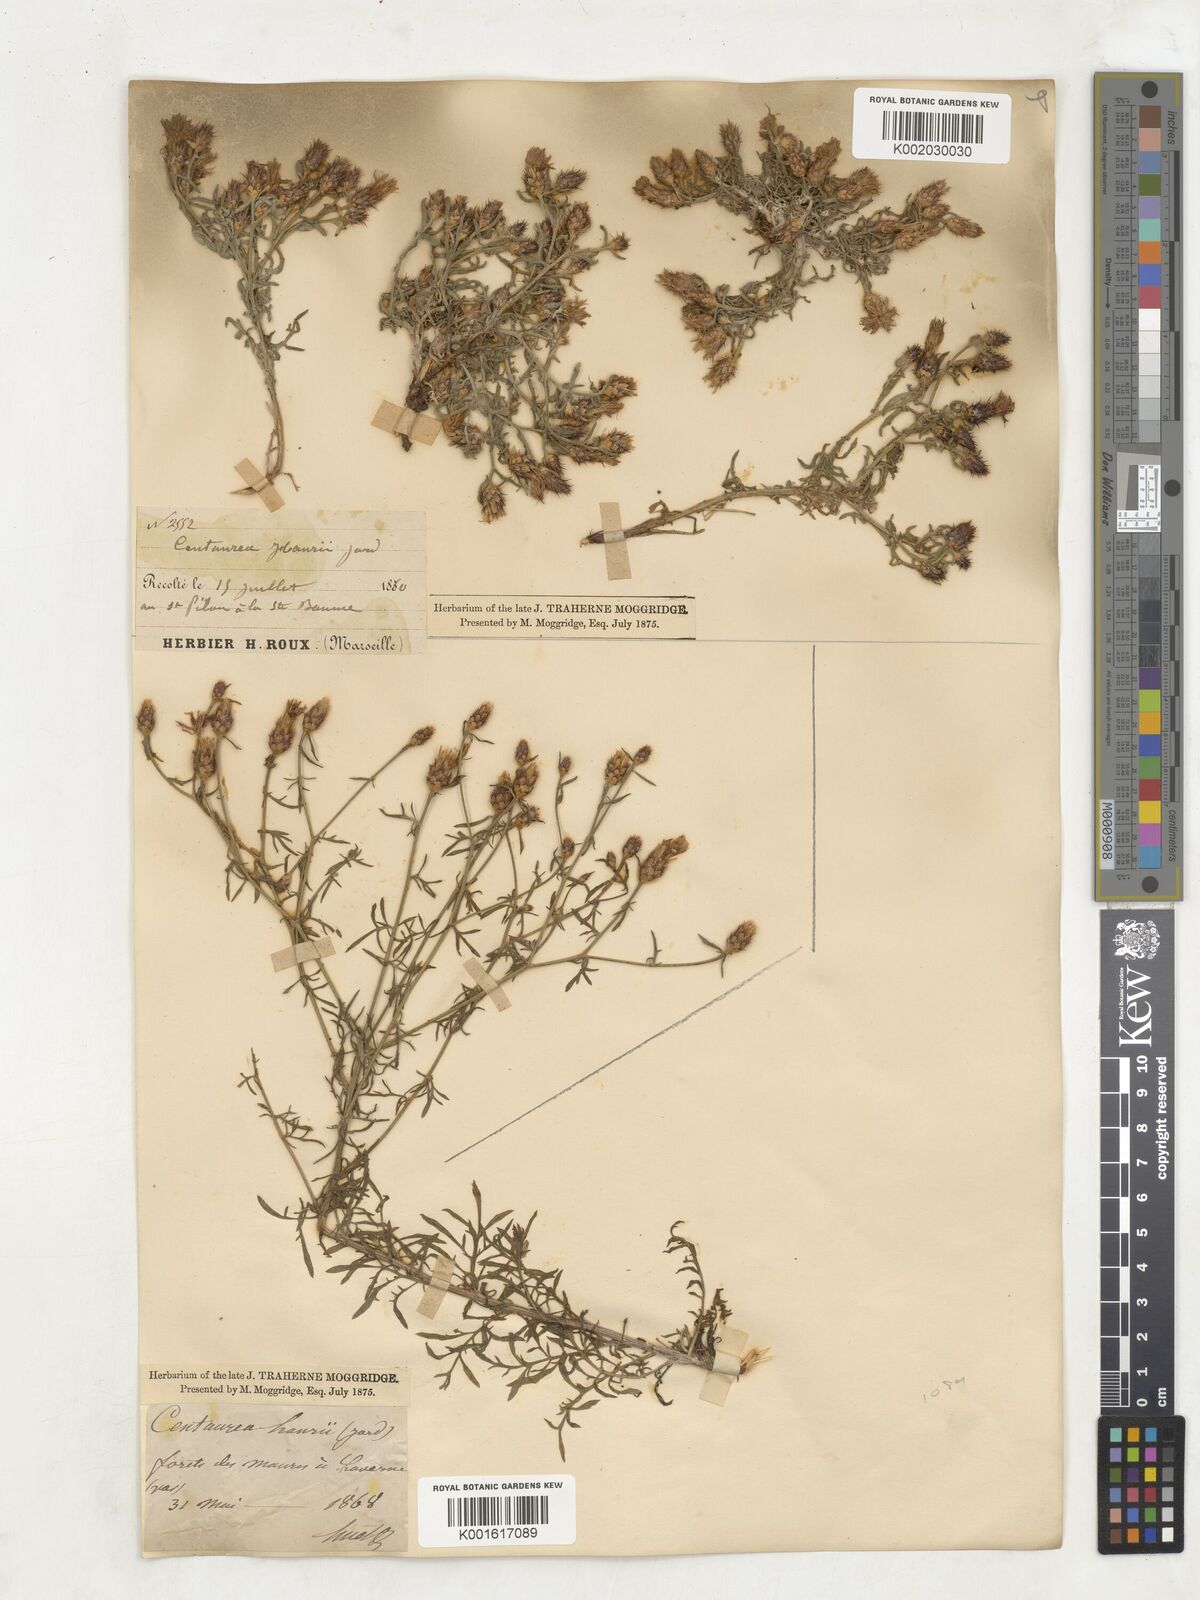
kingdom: Plantae
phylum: Tracheophyta
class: Magnoliopsida
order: Asterales
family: Asteraceae
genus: Centaurea
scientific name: Centaurea hanryi
